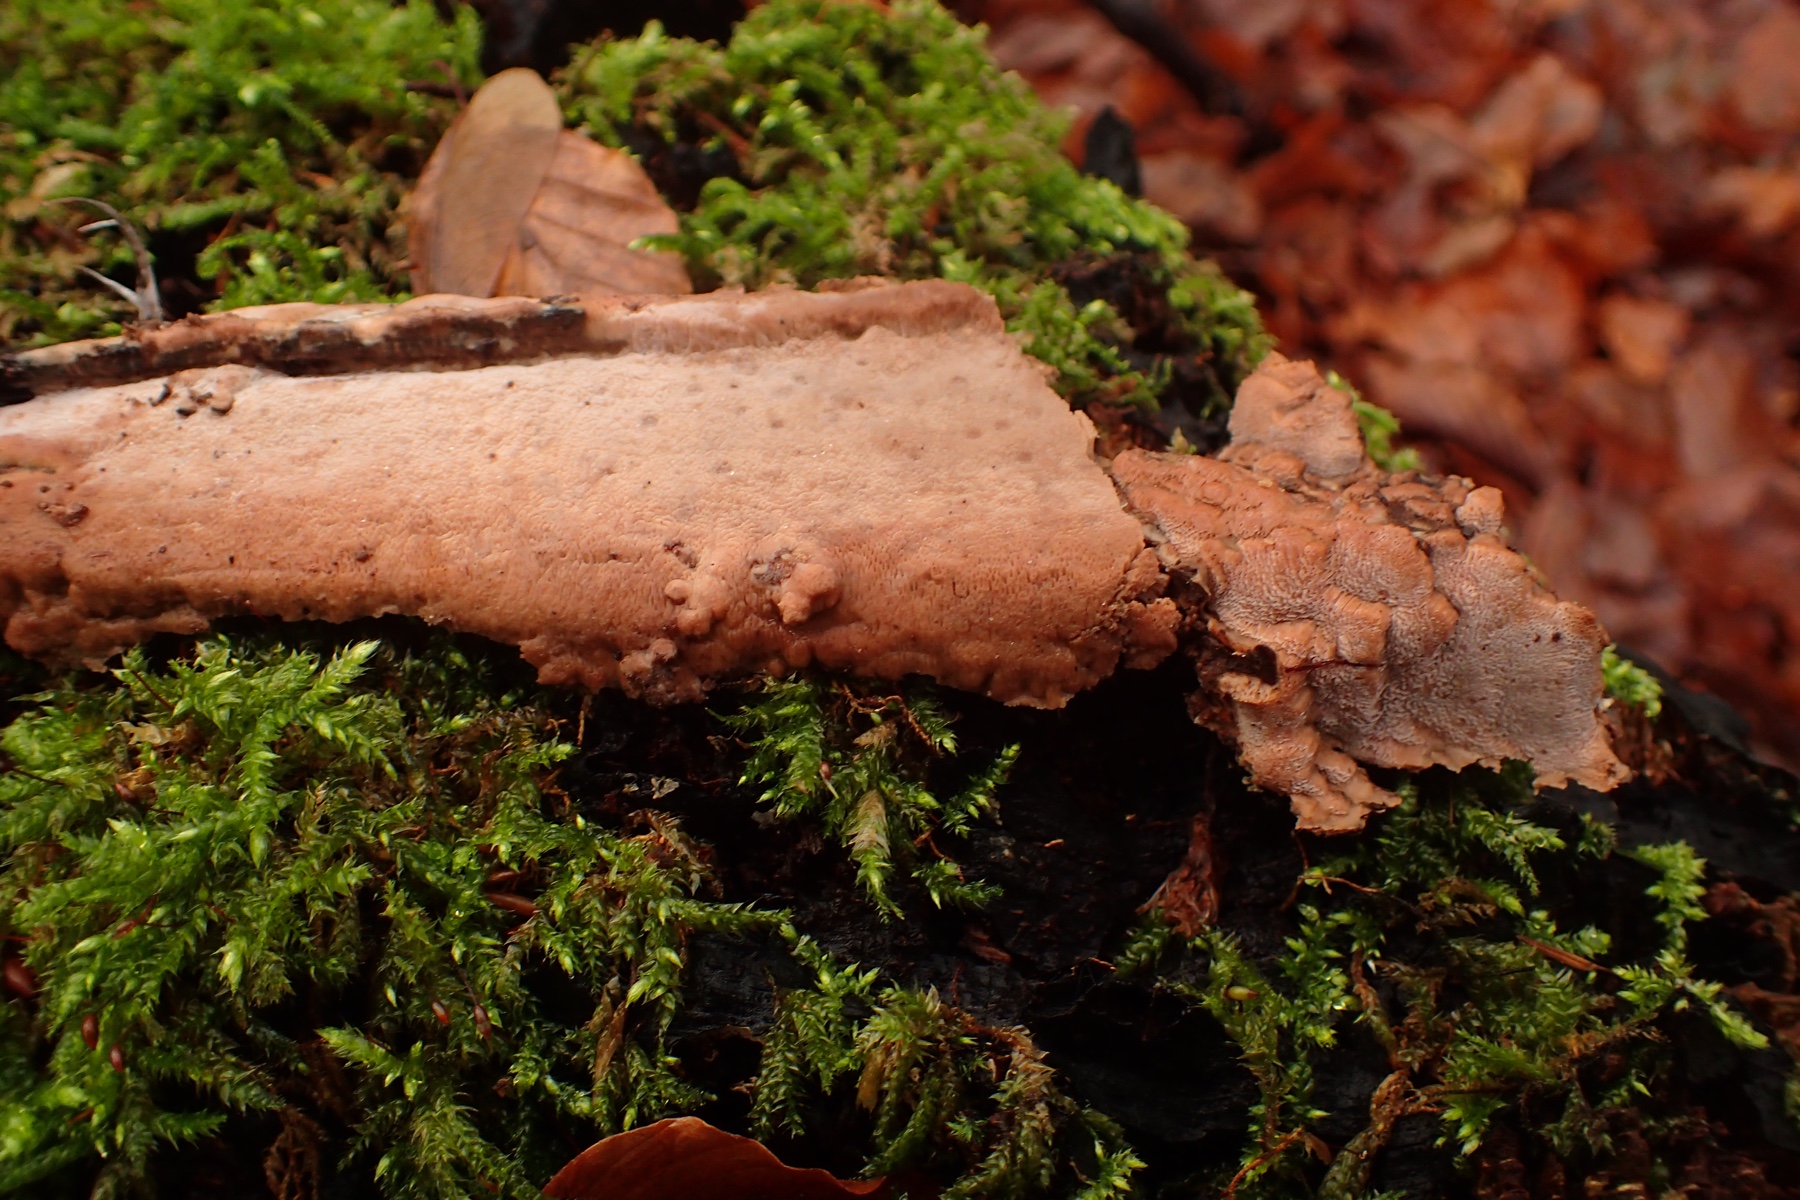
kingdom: Fungi
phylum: Basidiomycota
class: Agaricomycetes
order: Polyporales
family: Meruliaceae
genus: Mycoacia
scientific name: Mycoacia gilvescens
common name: rosa pastelporesvamp
